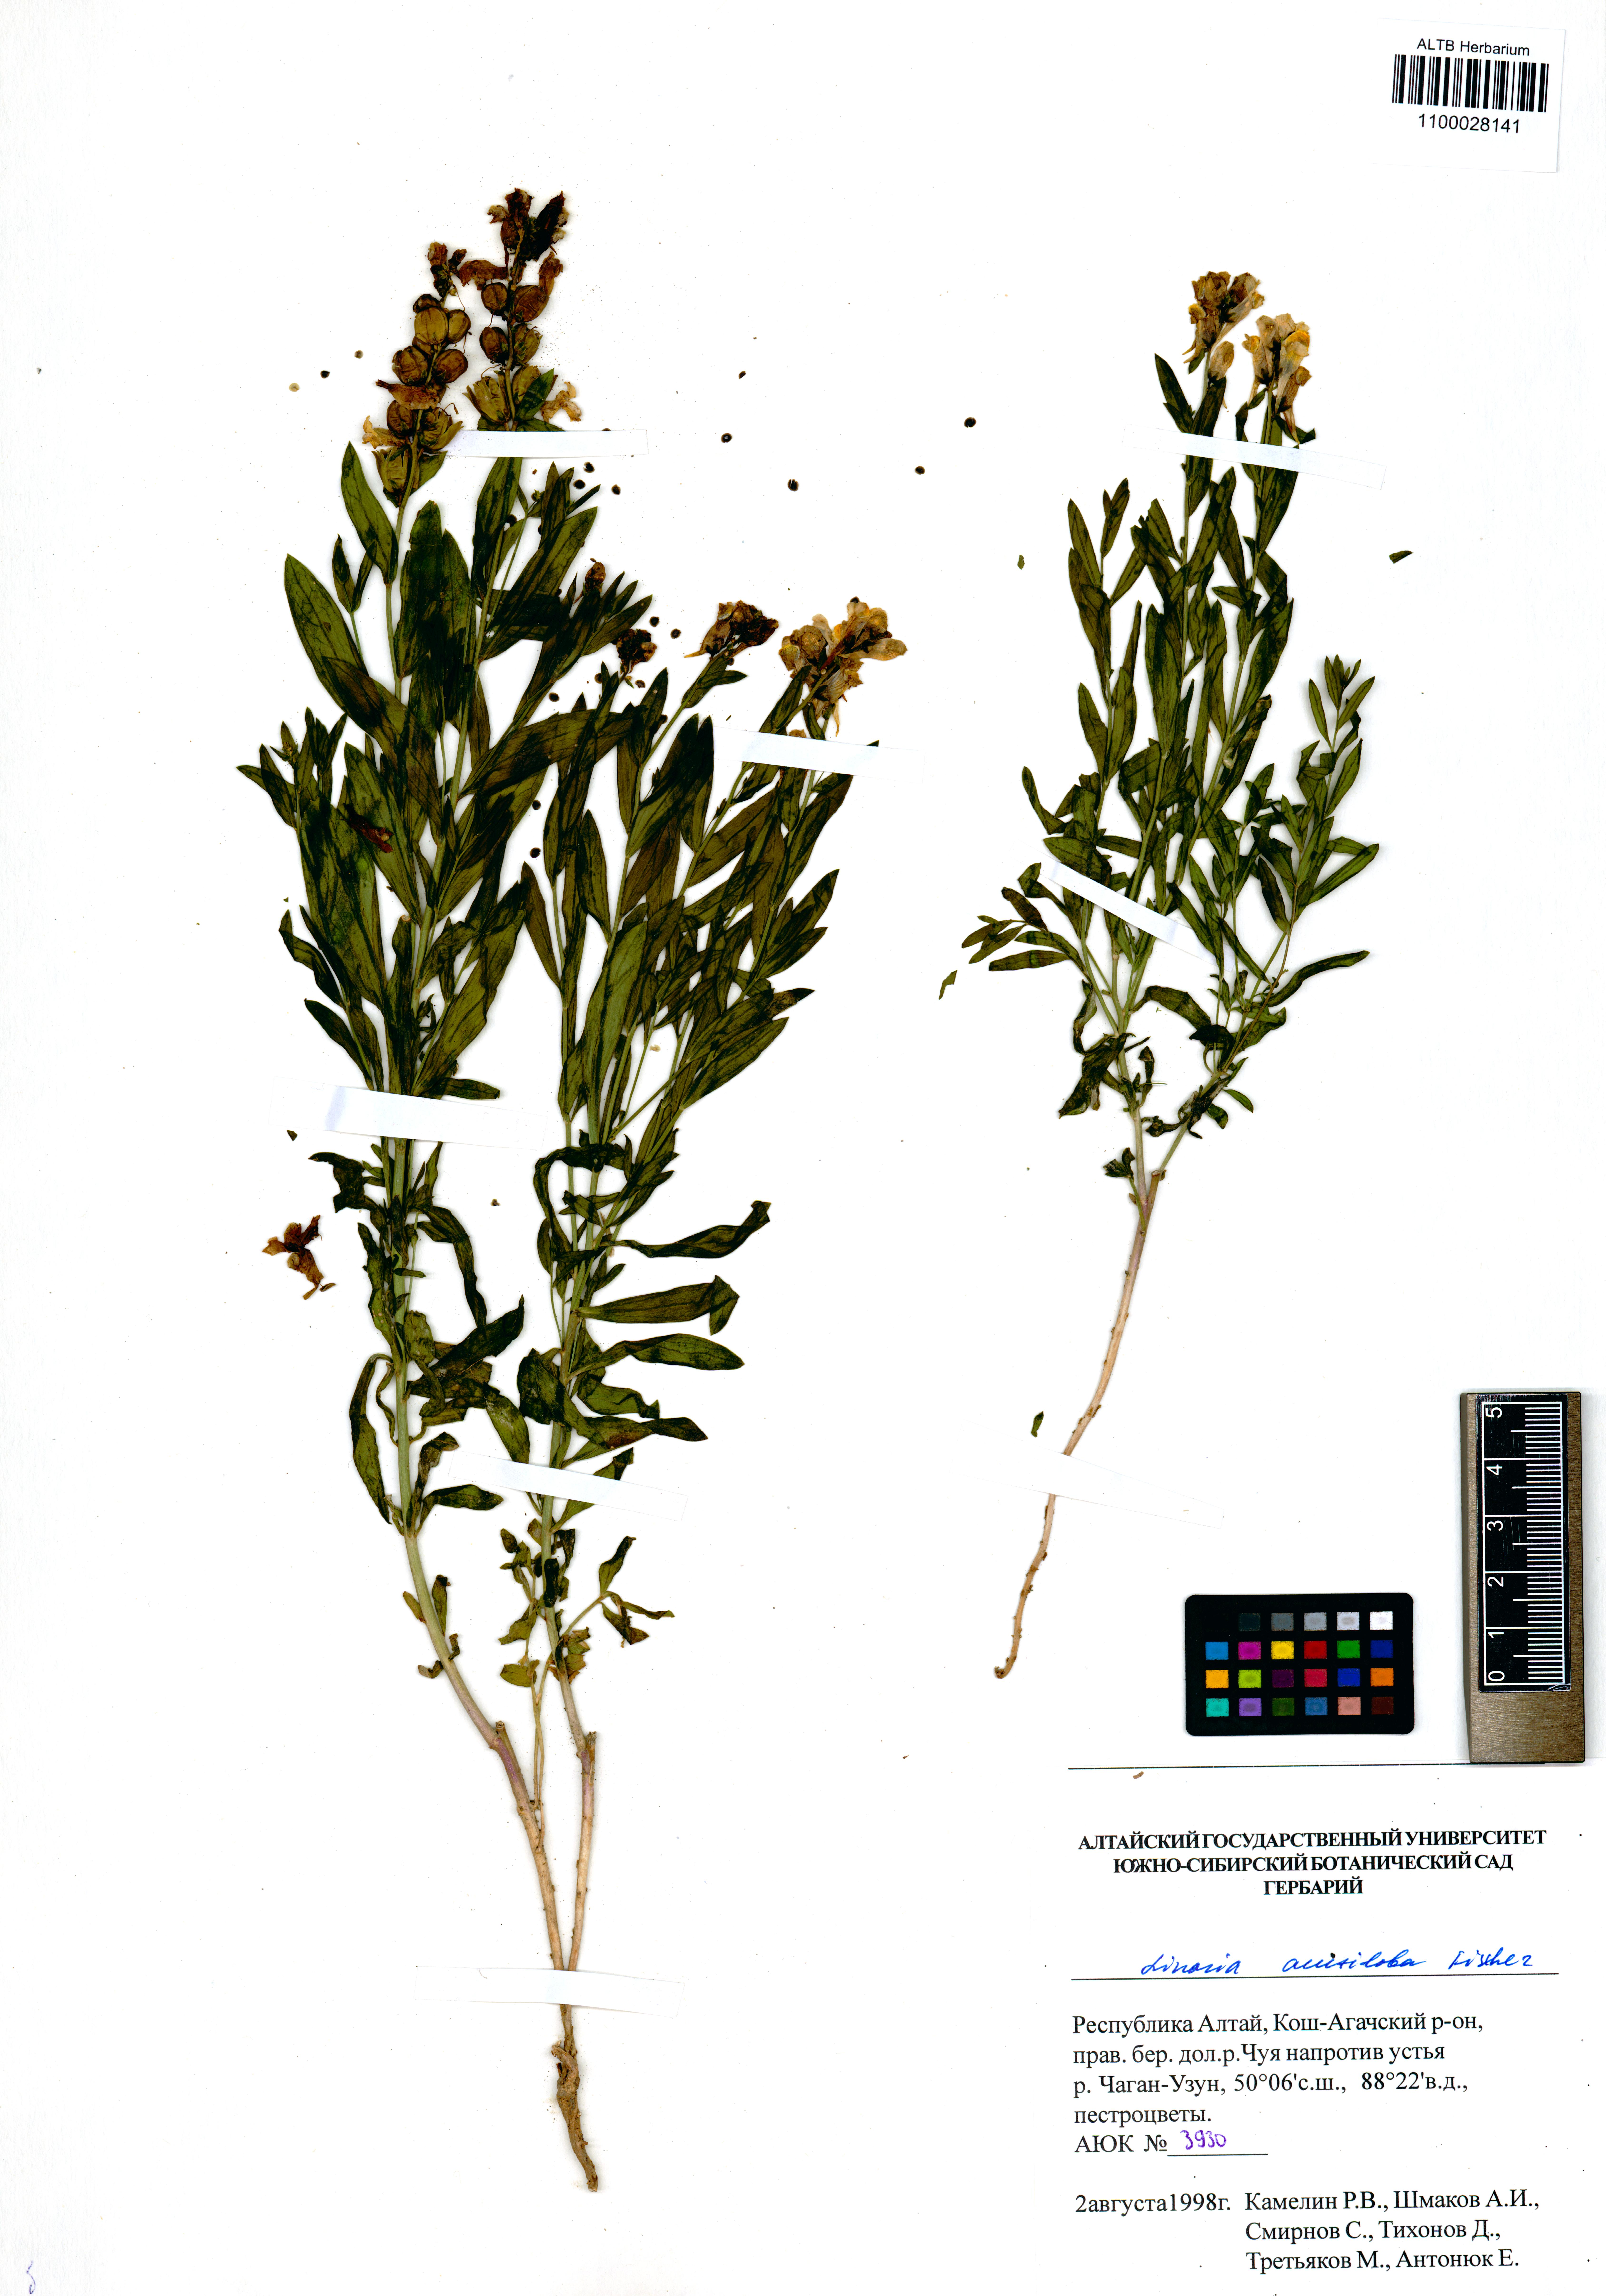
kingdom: Plantae
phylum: Tracheophyta
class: Magnoliopsida
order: Lamiales
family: Plantaginaceae
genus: Linaria
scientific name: Linaria acutiloba
